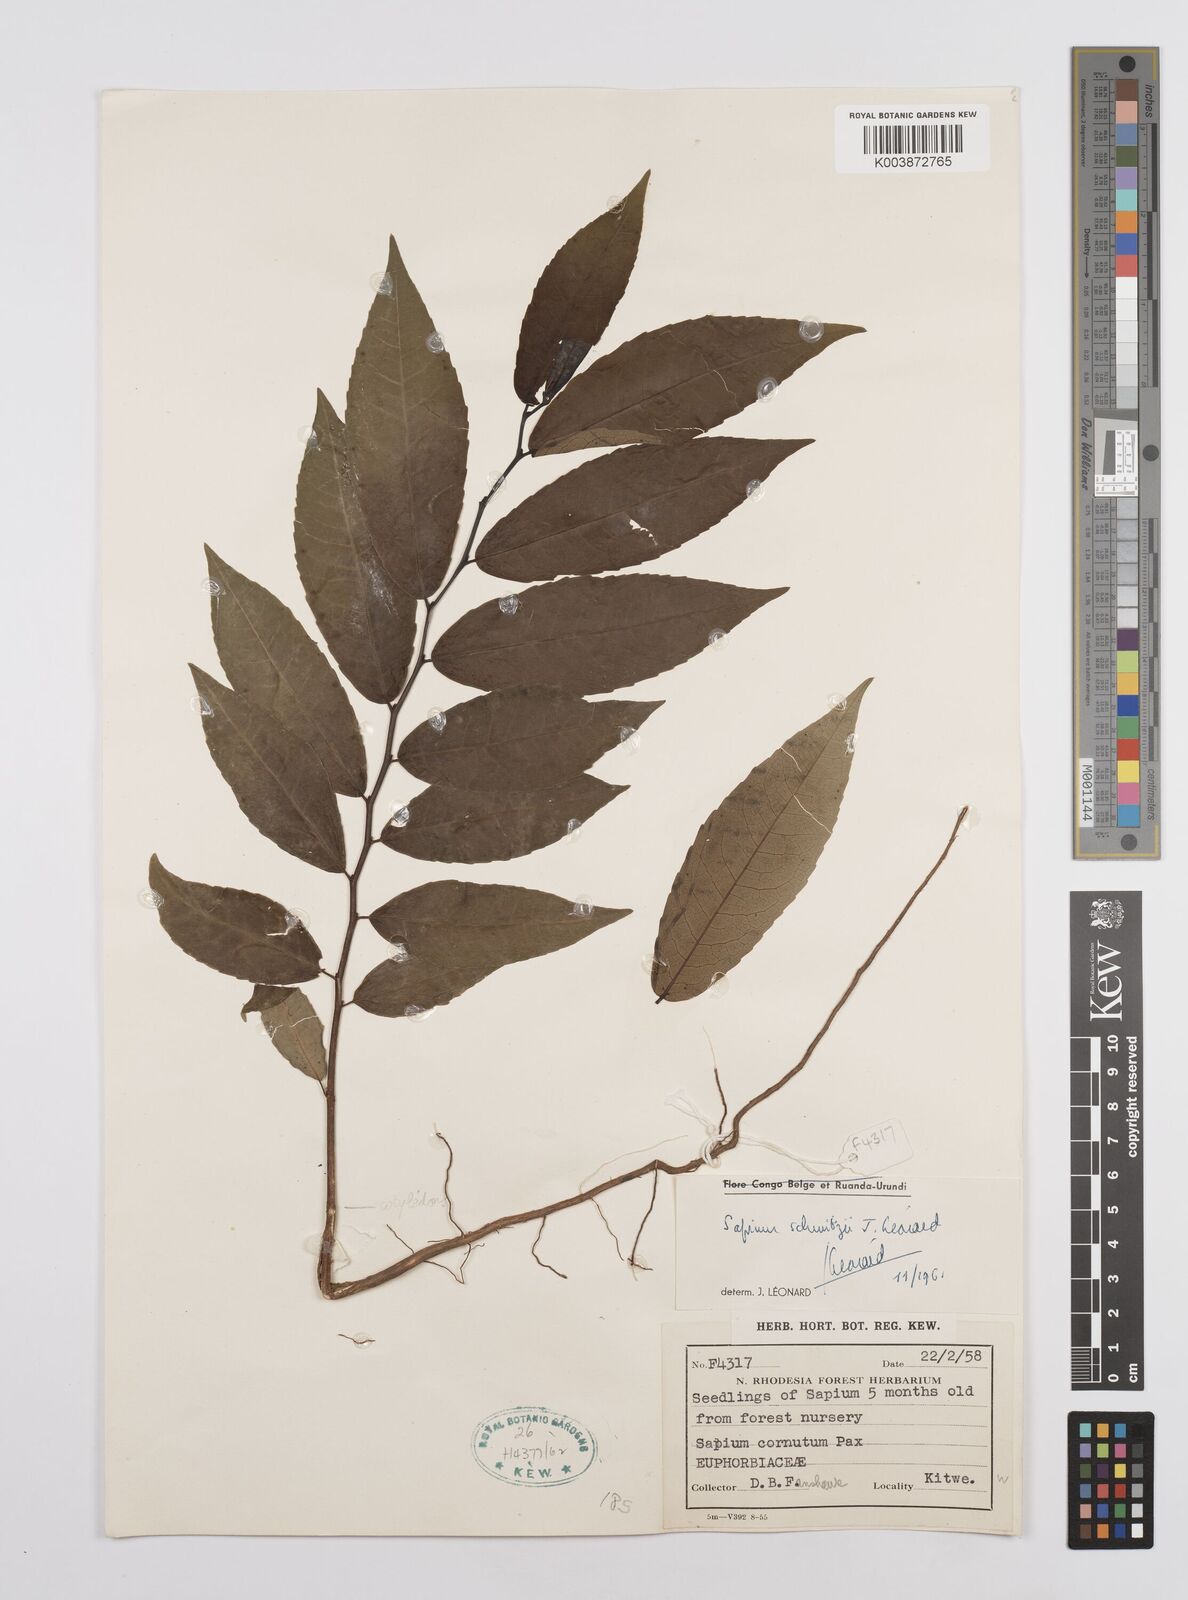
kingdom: Plantae
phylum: Tracheophyta
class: Magnoliopsida
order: Malpighiales
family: Euphorbiaceae
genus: Sclerocroton
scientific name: Sclerocroton schmitzii
